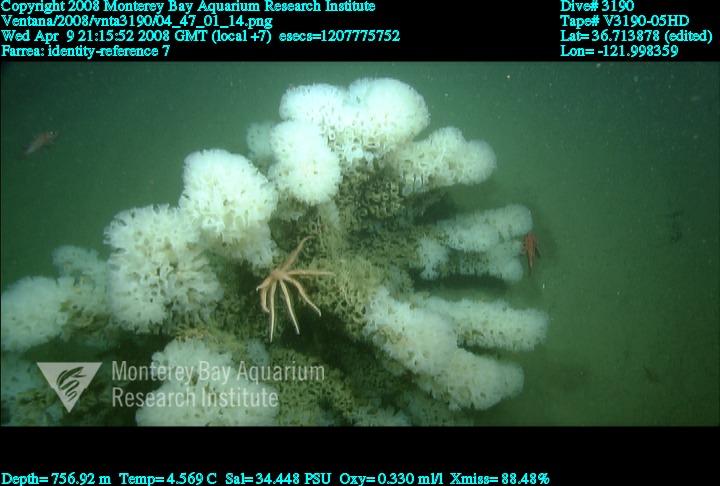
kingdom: Animalia
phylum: Porifera
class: Hexactinellida
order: Sceptrulophora
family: Farreidae
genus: Farrea
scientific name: Farrea
